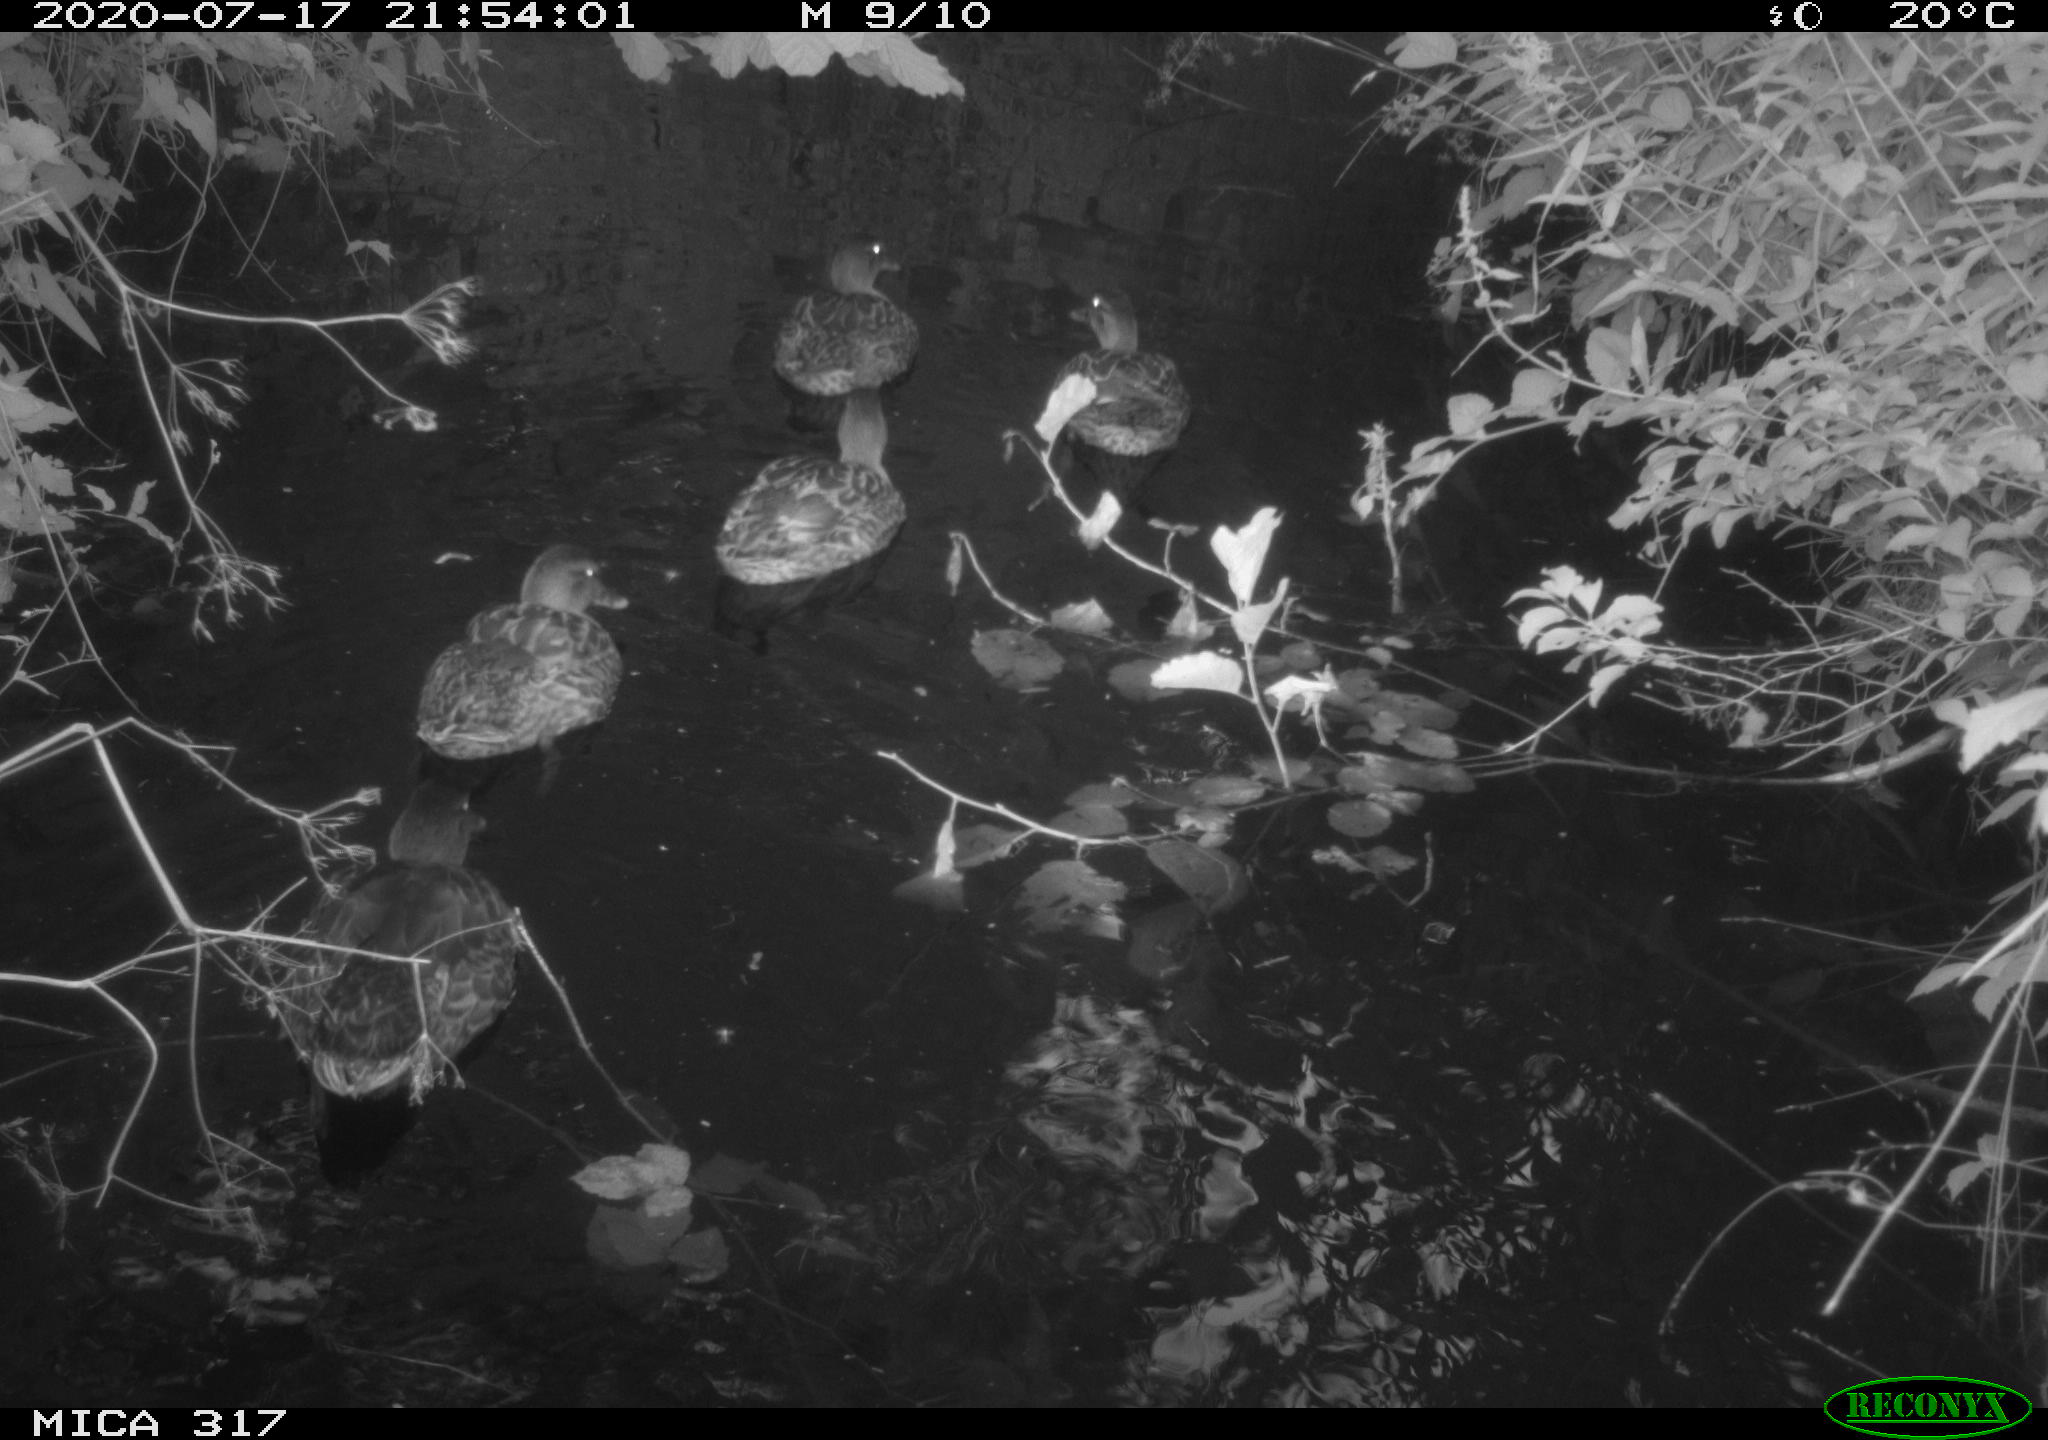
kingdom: Animalia
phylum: Chordata
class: Aves
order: Anseriformes
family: Anatidae
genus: Anas
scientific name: Anas platyrhynchos
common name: Mallard
